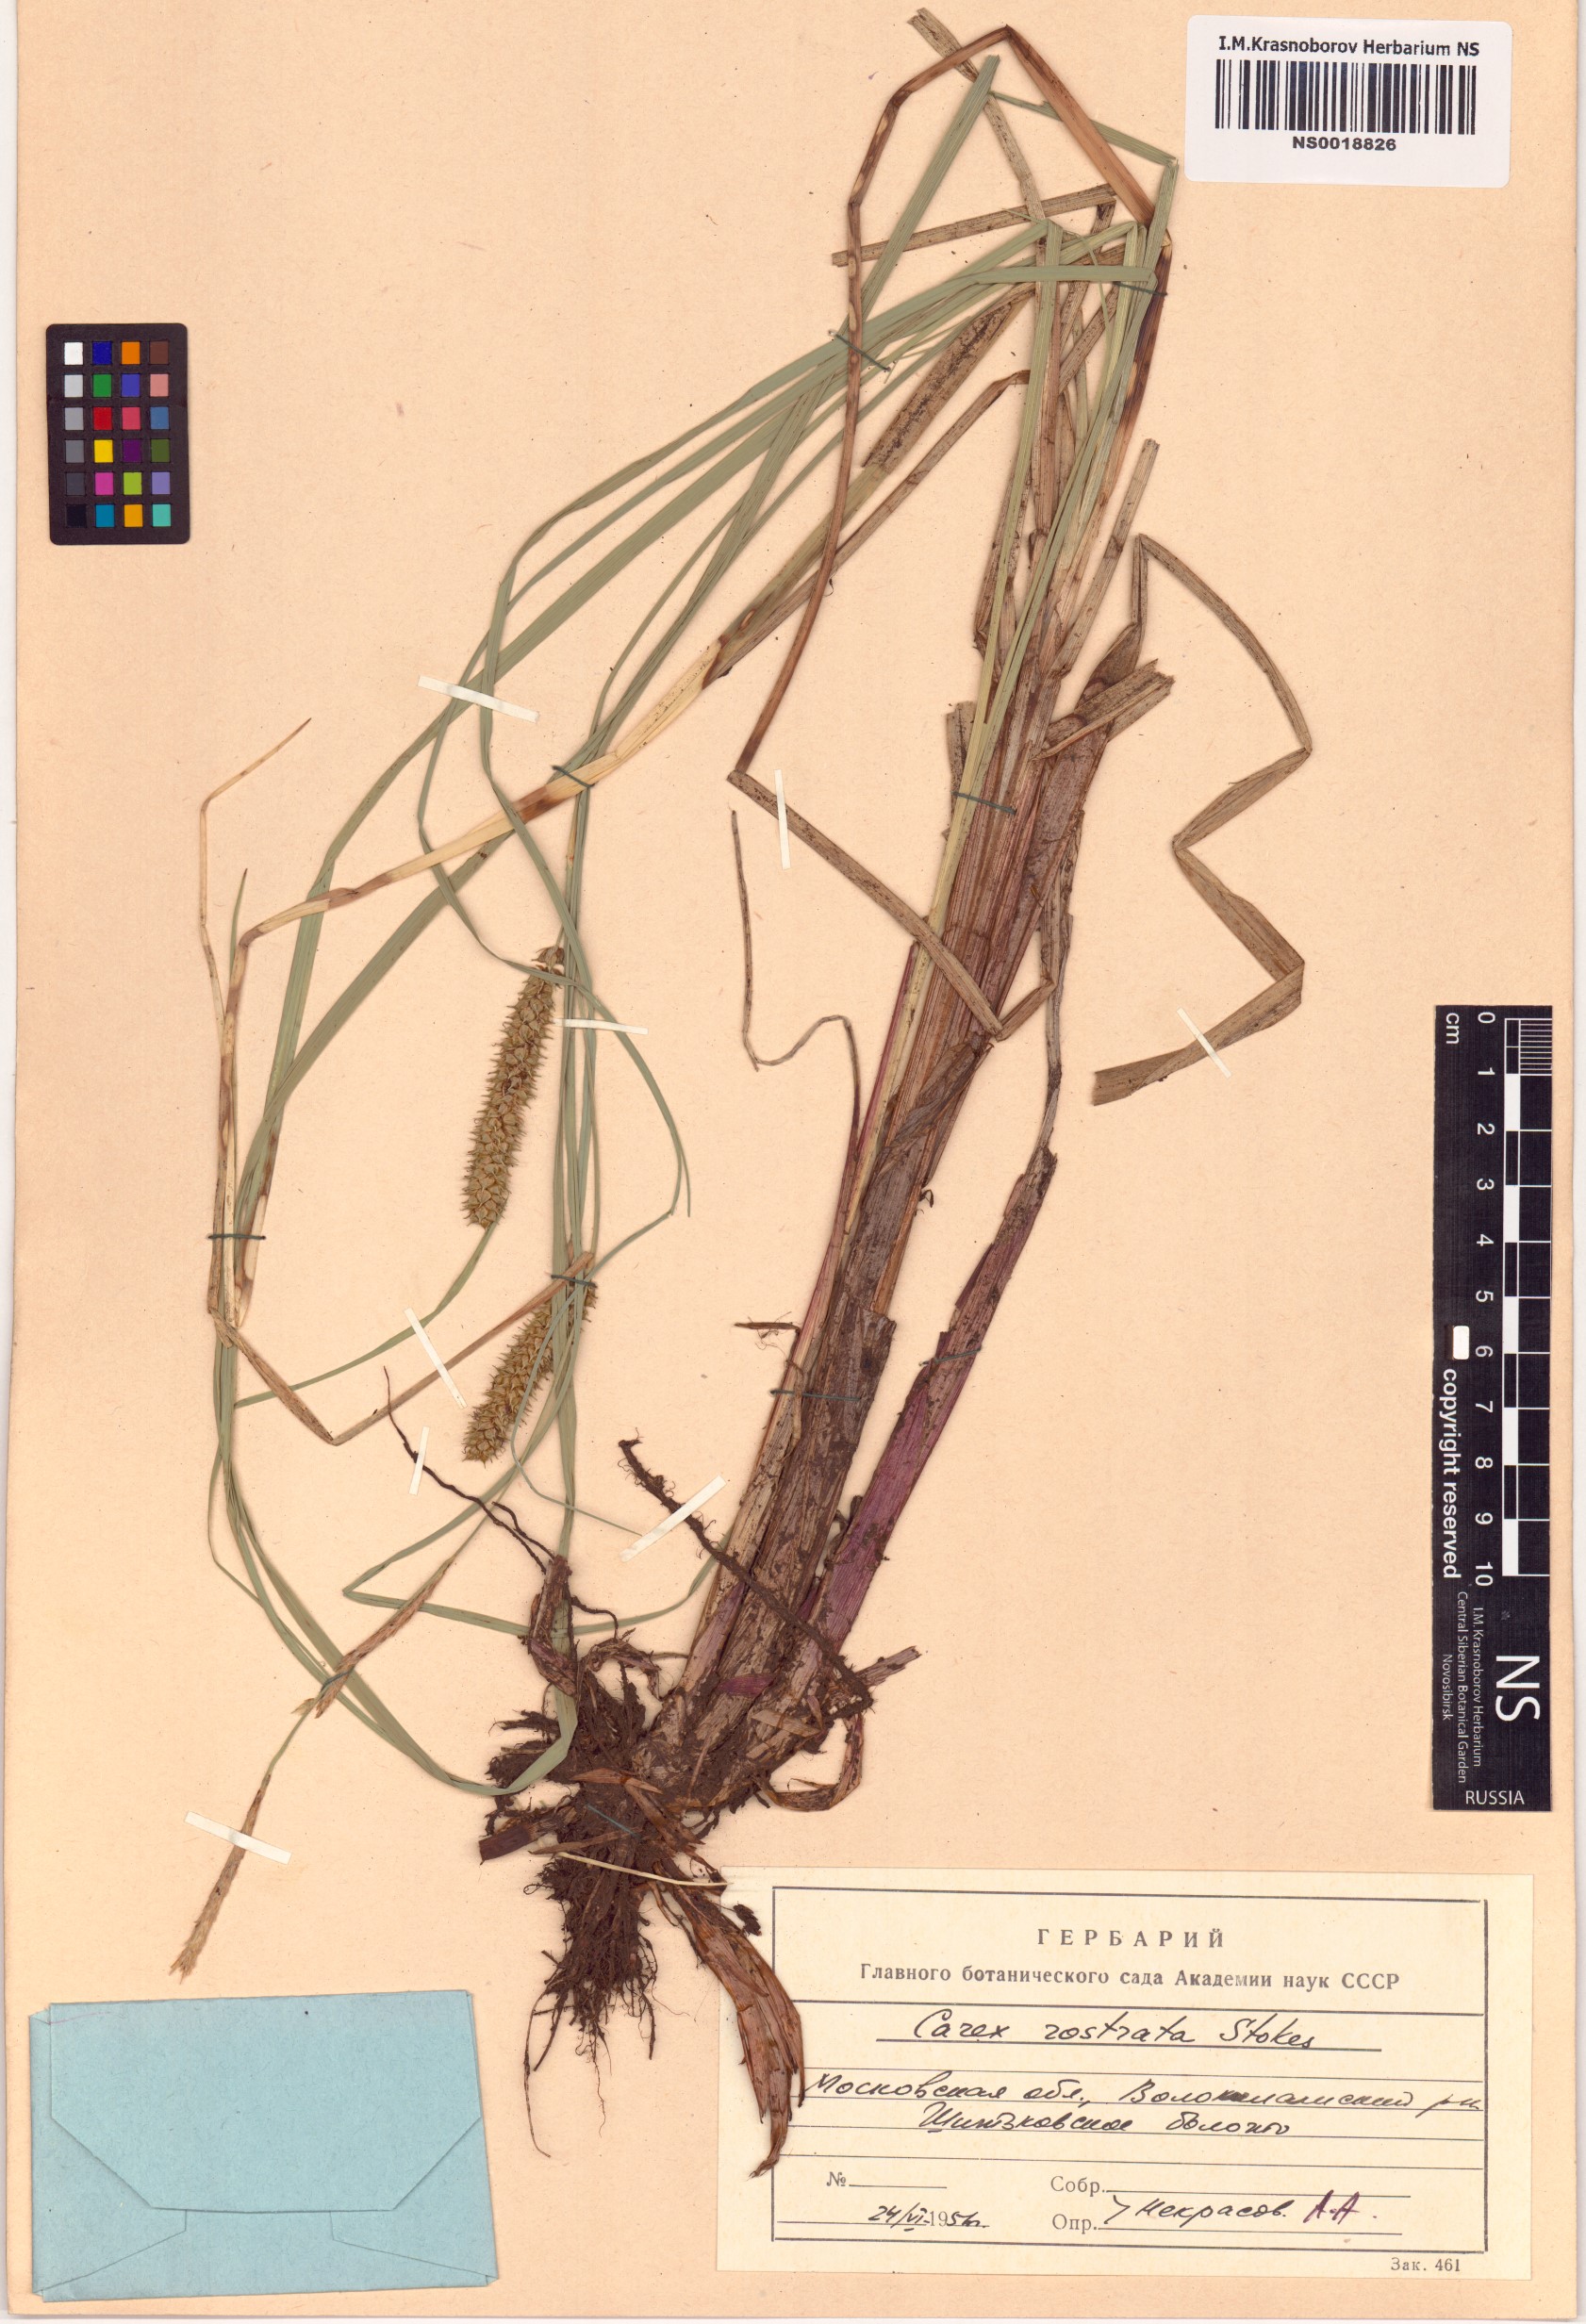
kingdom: Plantae
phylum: Tracheophyta
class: Liliopsida
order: Poales
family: Cyperaceae
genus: Carex
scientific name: Carex rostrata
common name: Bottle sedge
